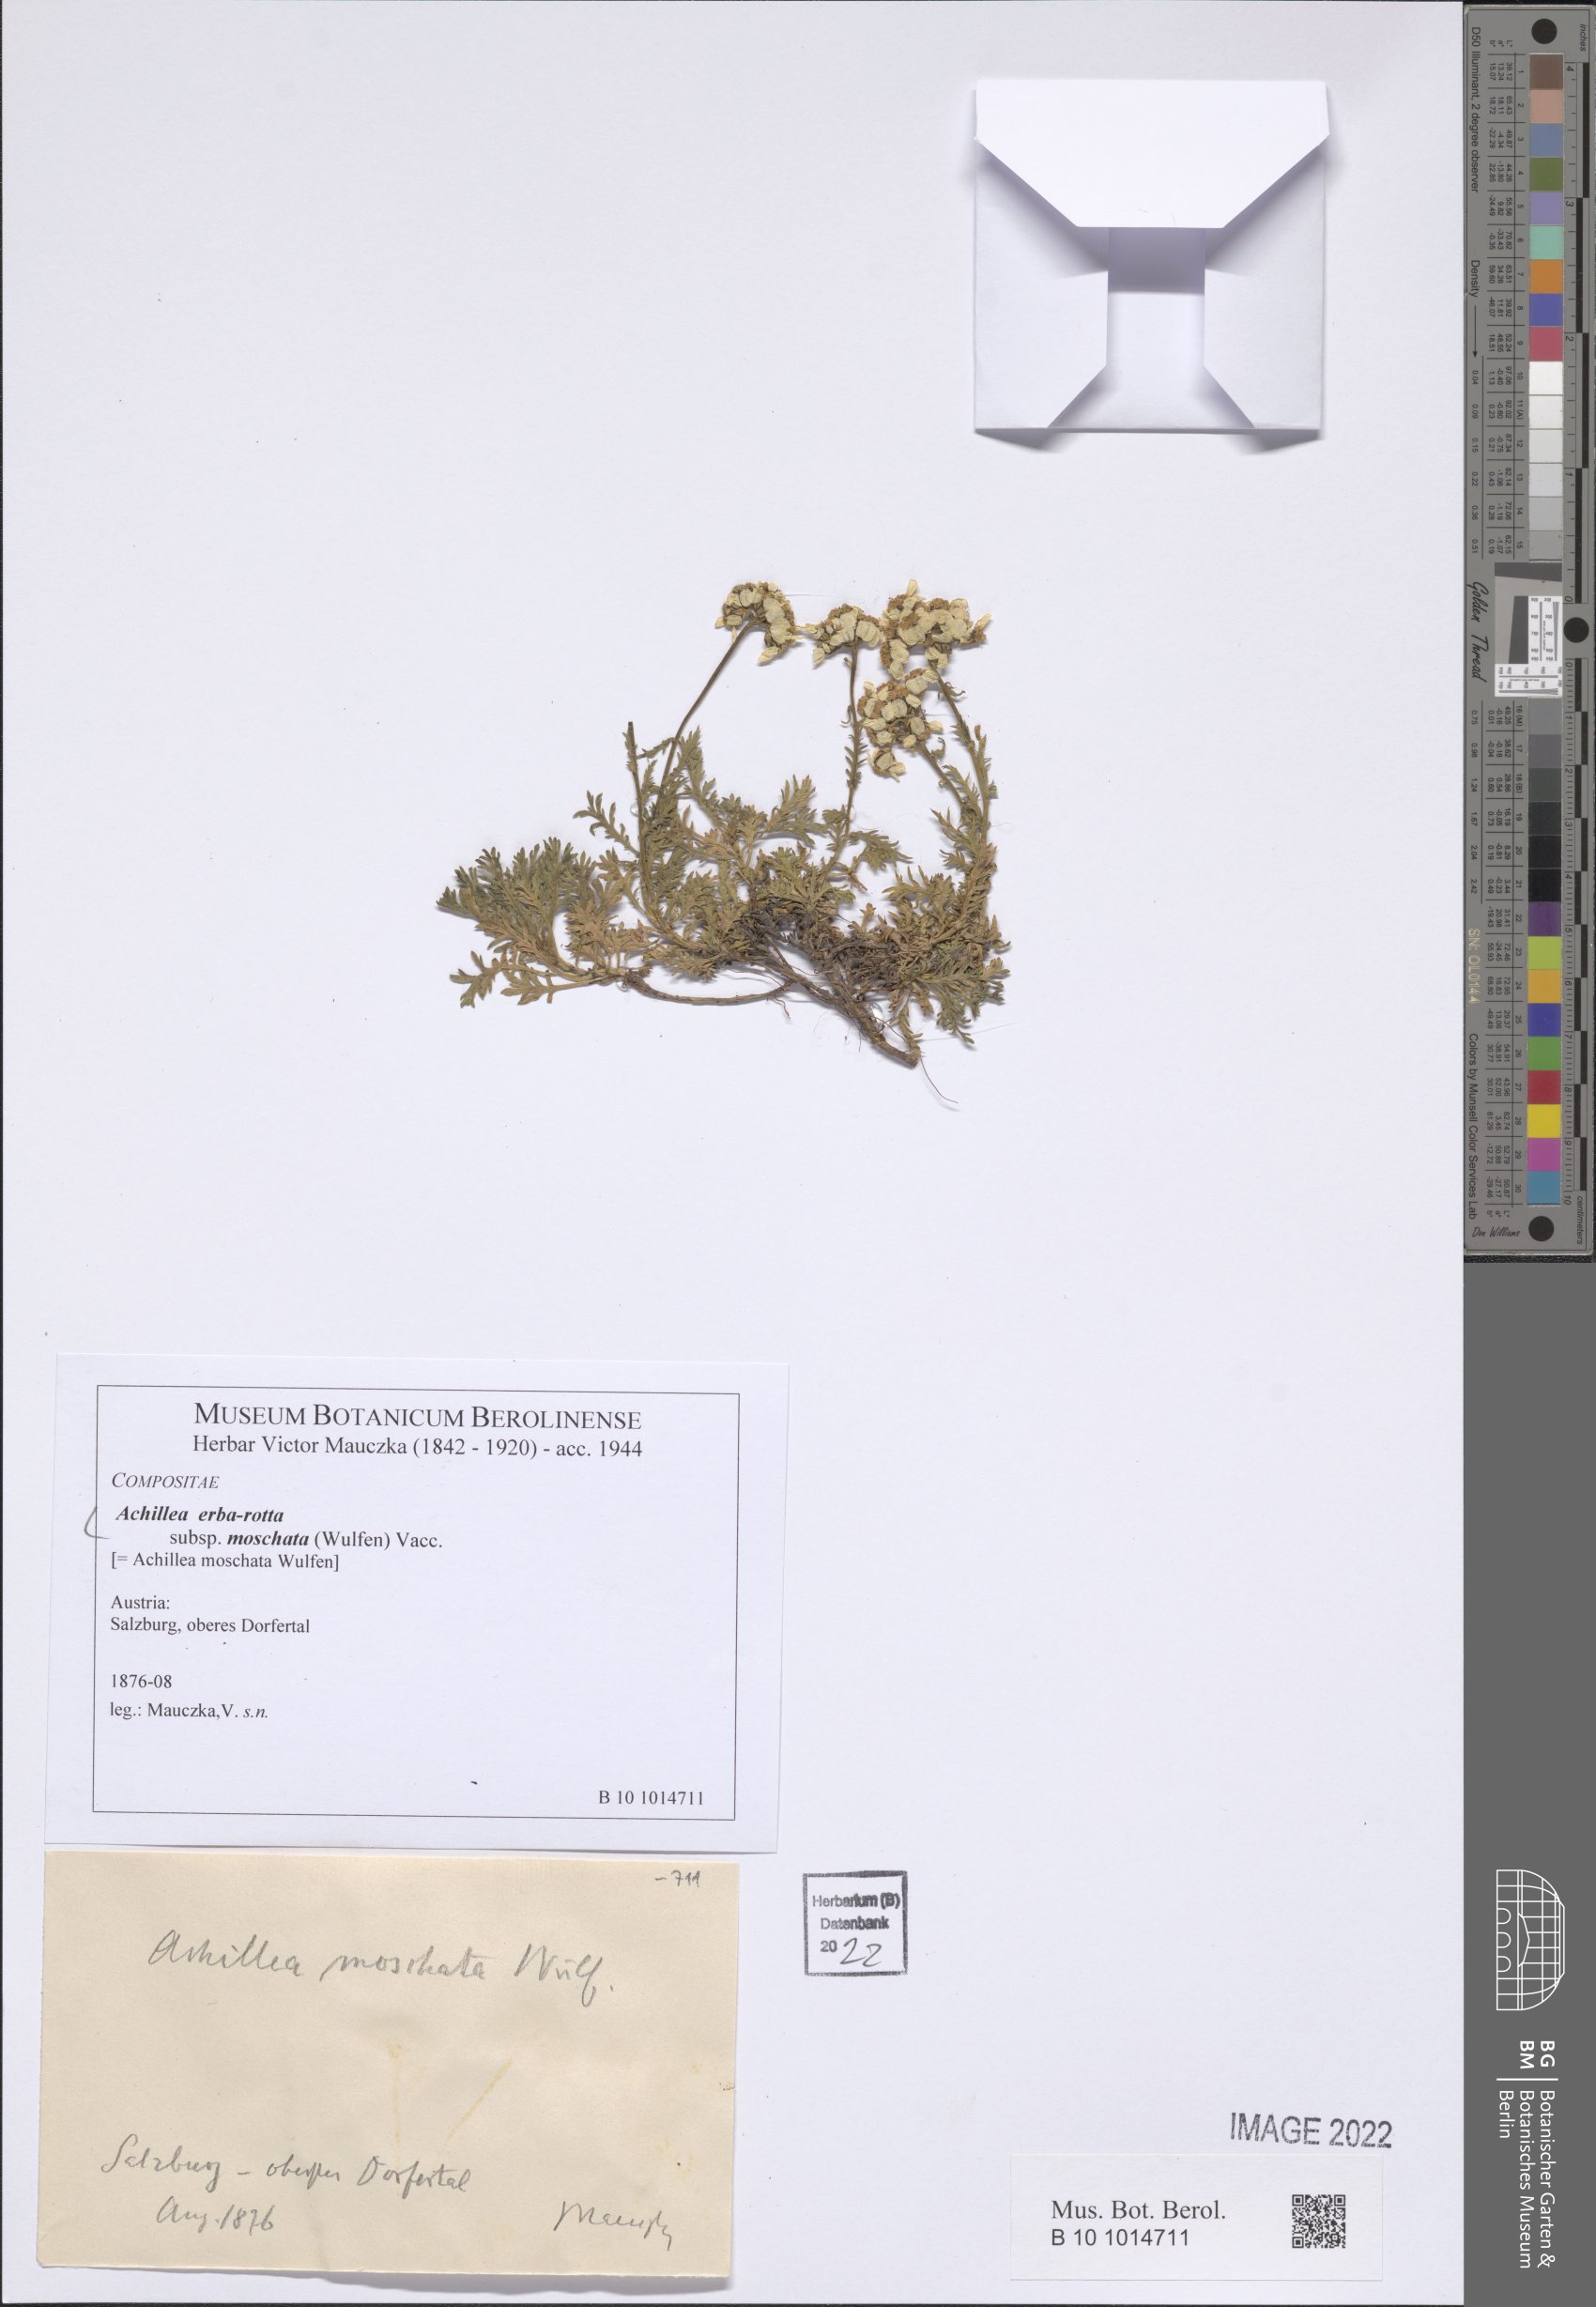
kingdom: Plantae
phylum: Tracheophyta
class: Magnoliopsida
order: Asterales
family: Asteraceae
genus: Achillea
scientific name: Achillea erba-rotta
